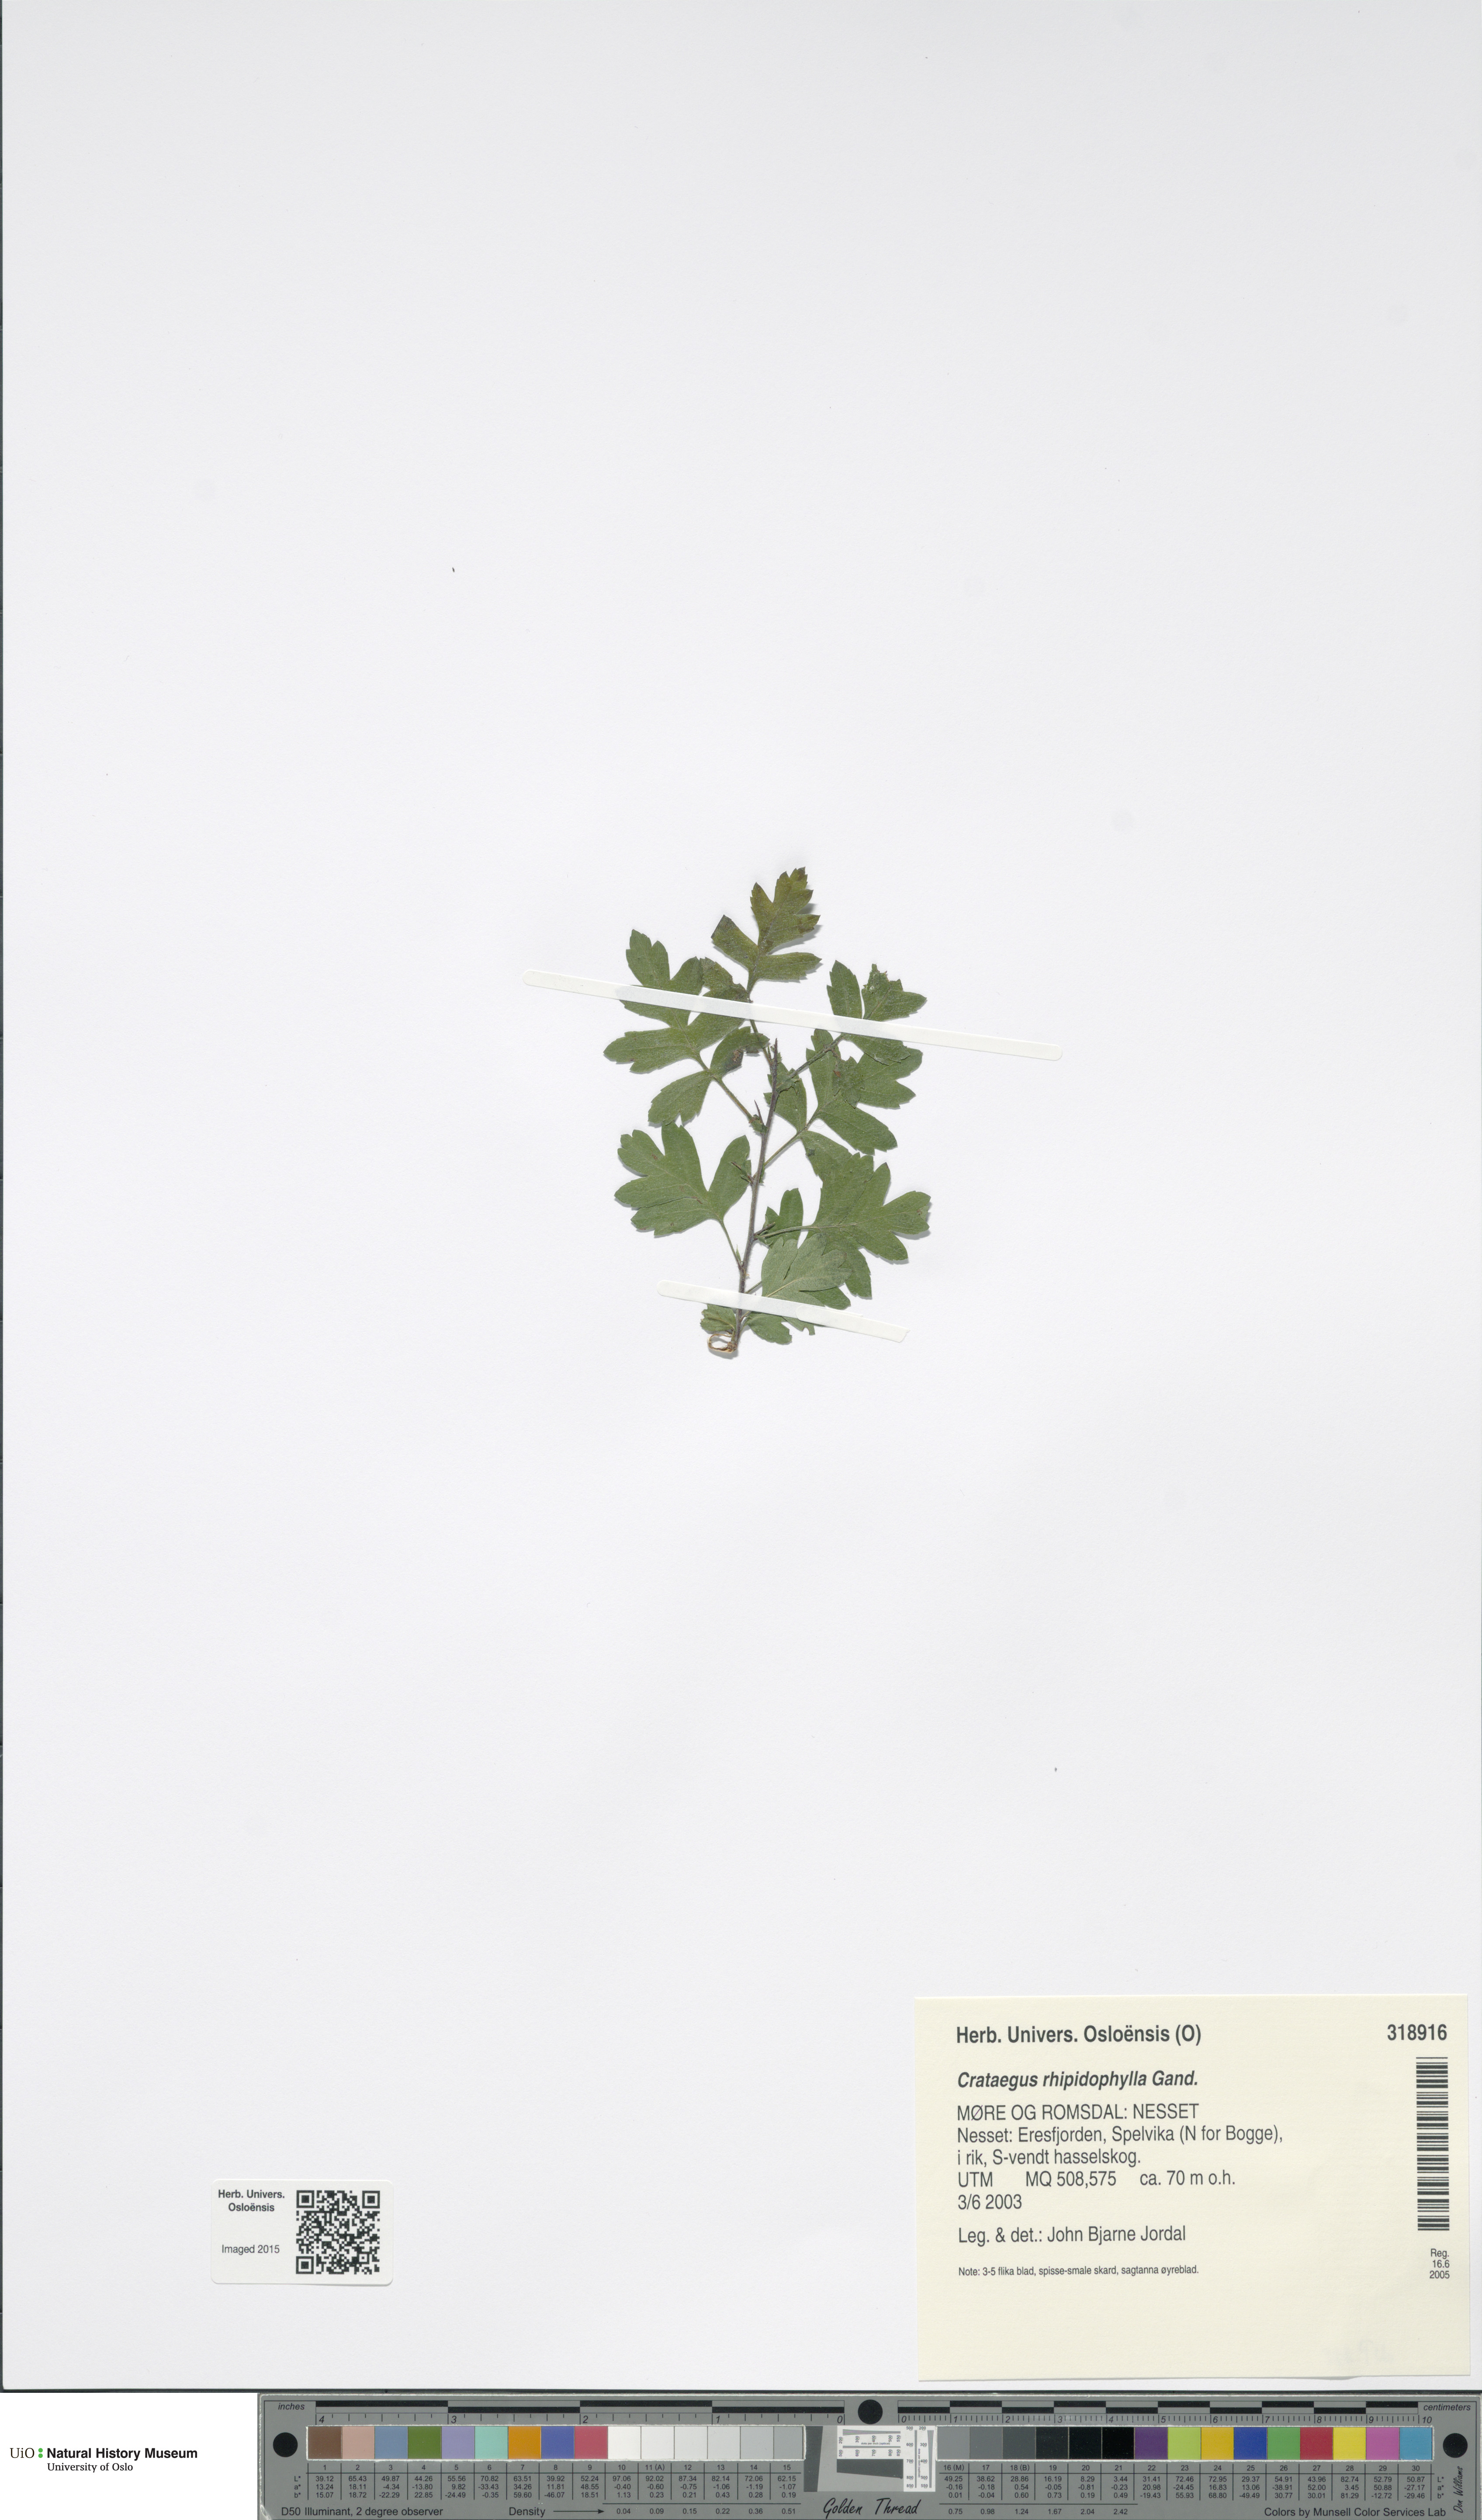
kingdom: Plantae
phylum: Tracheophyta
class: Magnoliopsida
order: Rosales
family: Rosaceae
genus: Crataegus
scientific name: Crataegus rhipidophylla
